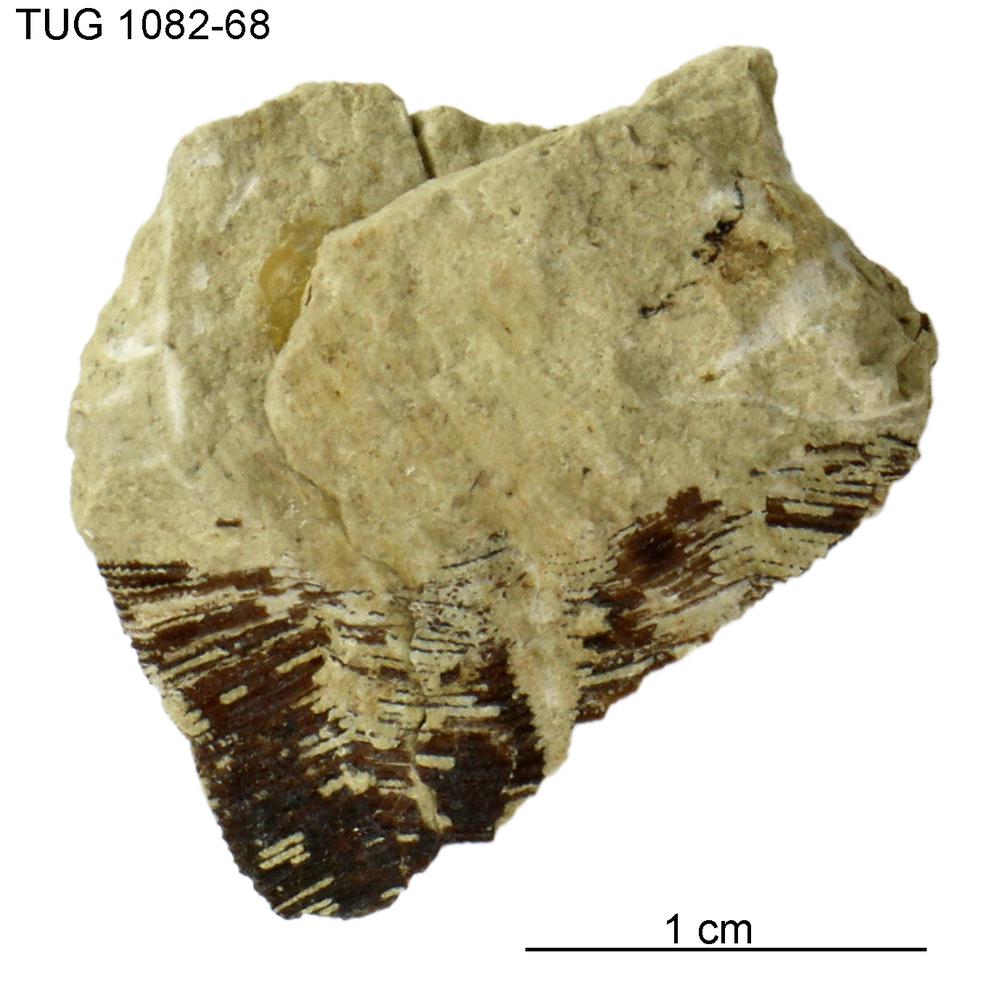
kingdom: Animalia
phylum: Cnidaria
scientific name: Cnidaria
